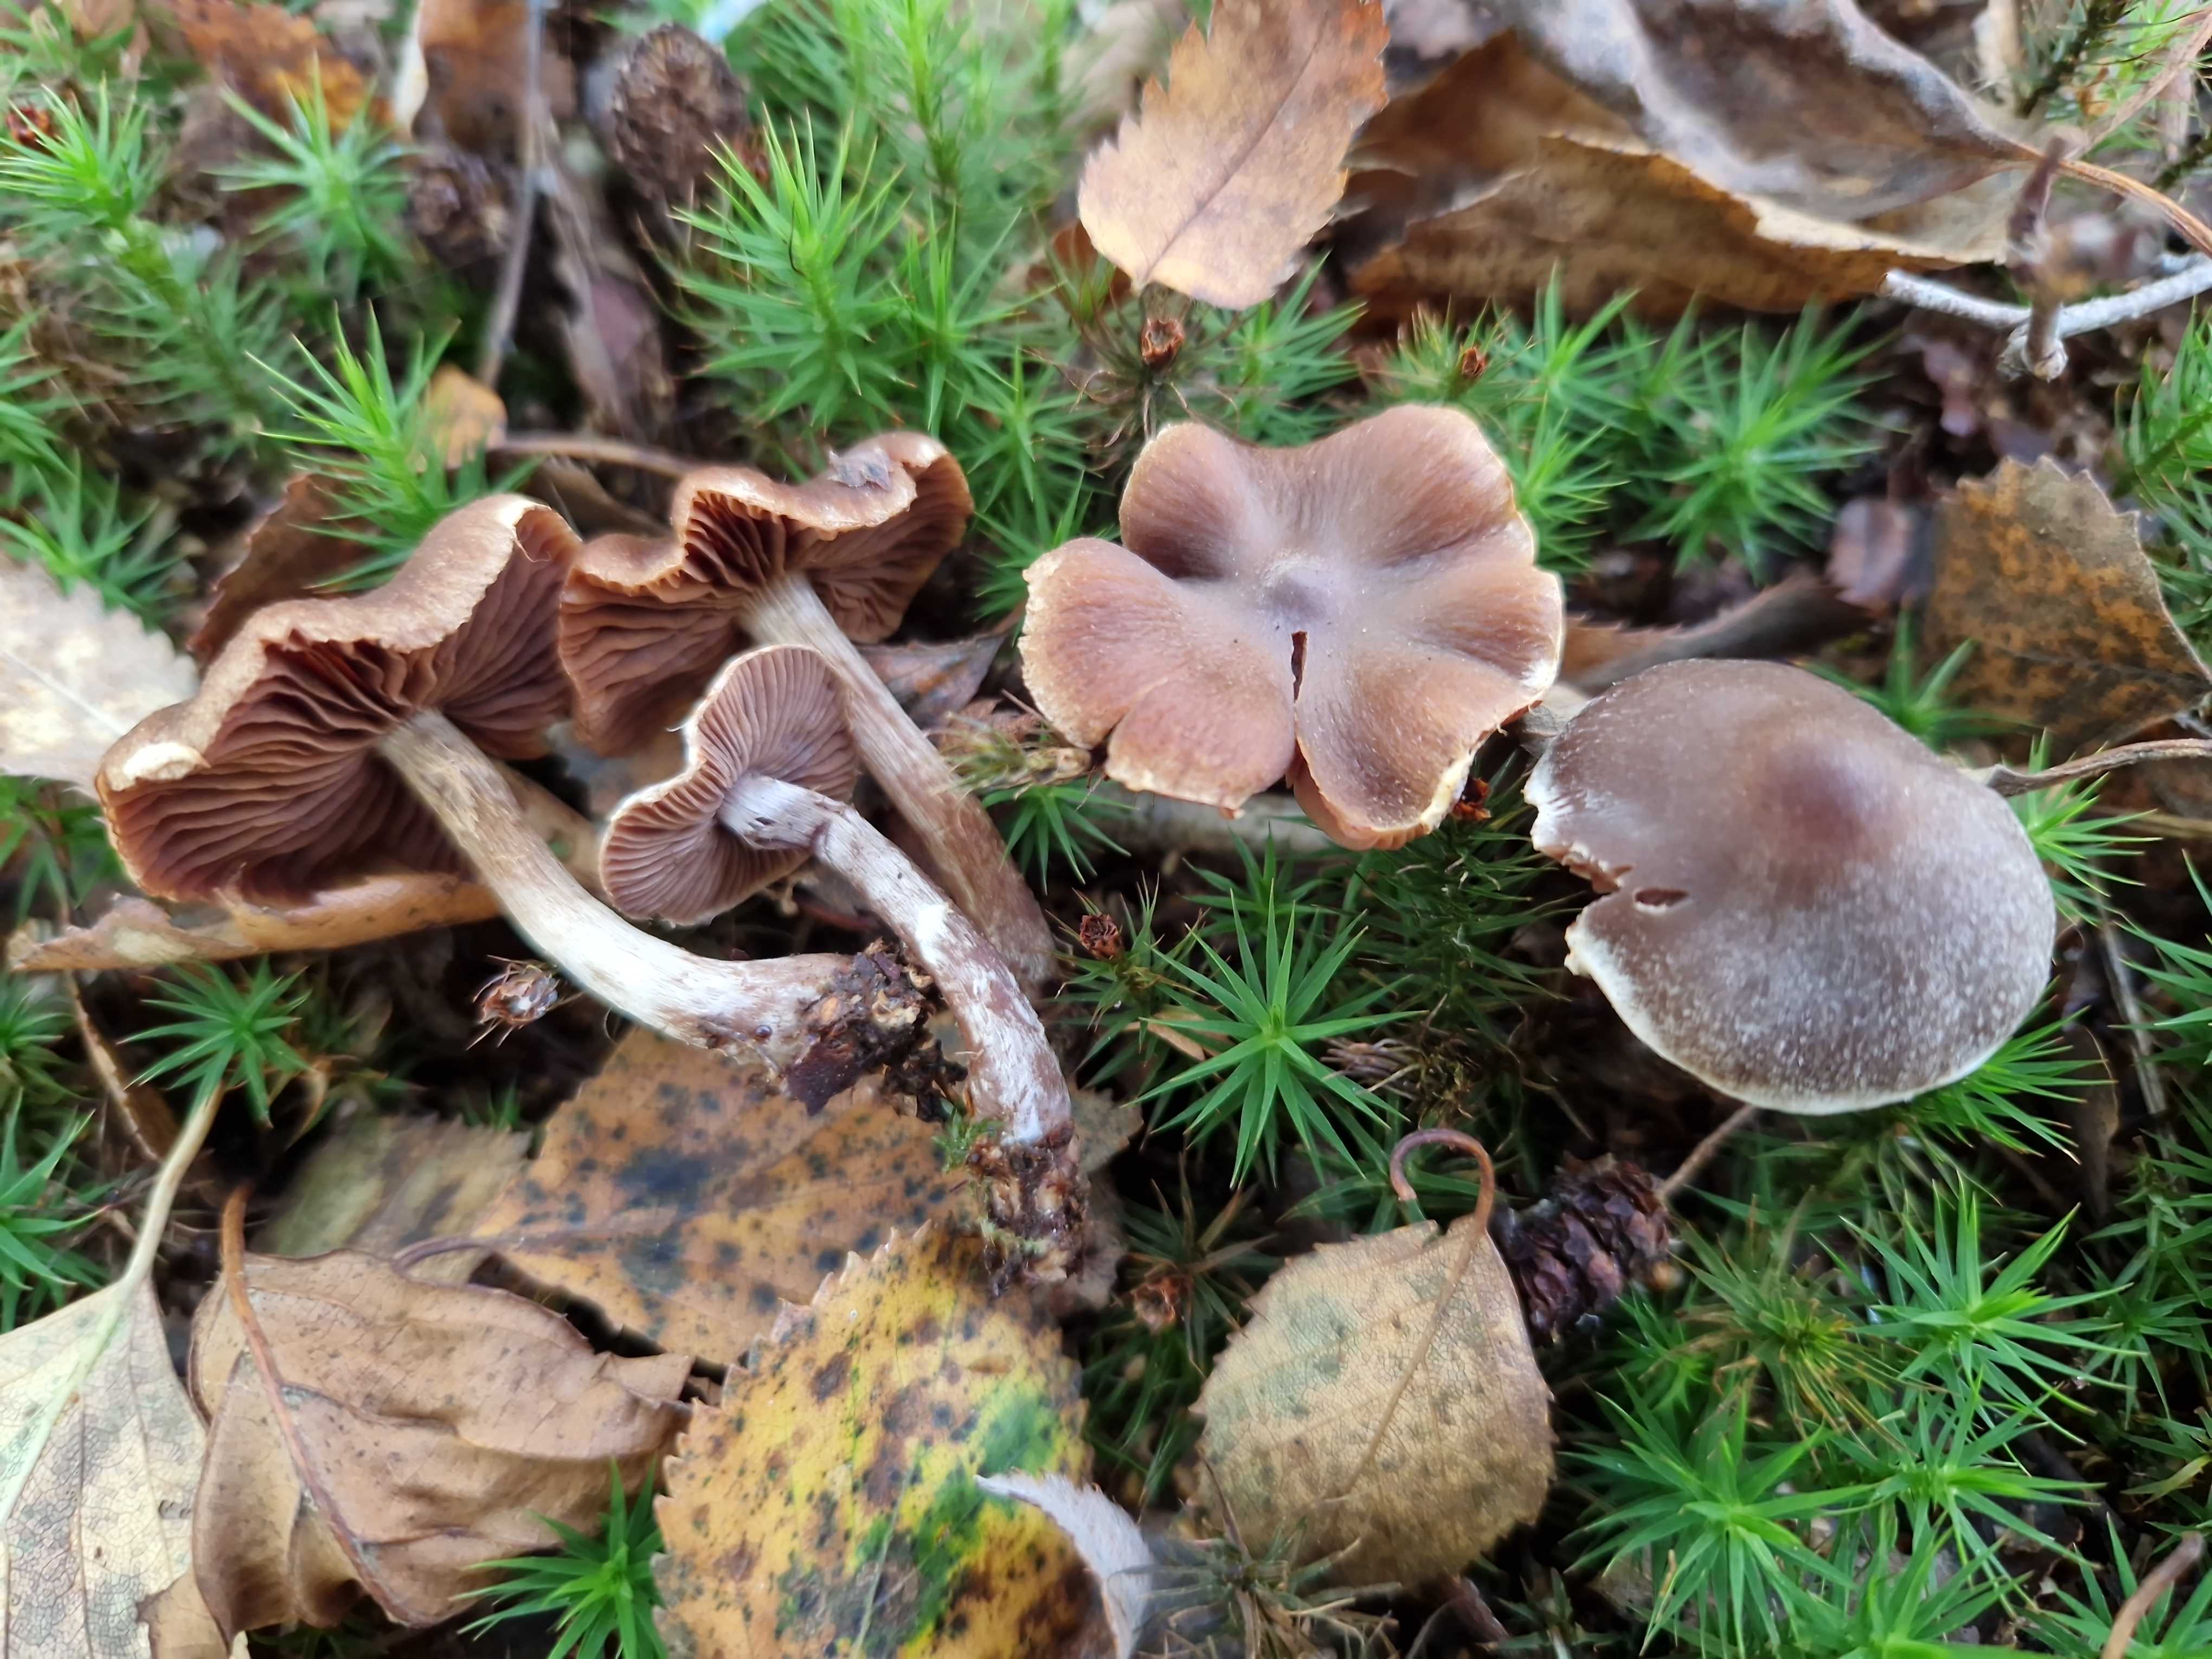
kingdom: Fungi
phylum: Basidiomycota
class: Agaricomycetes
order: Agaricales
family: Cortinariaceae
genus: Cortinarius
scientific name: Cortinarius flabellus
